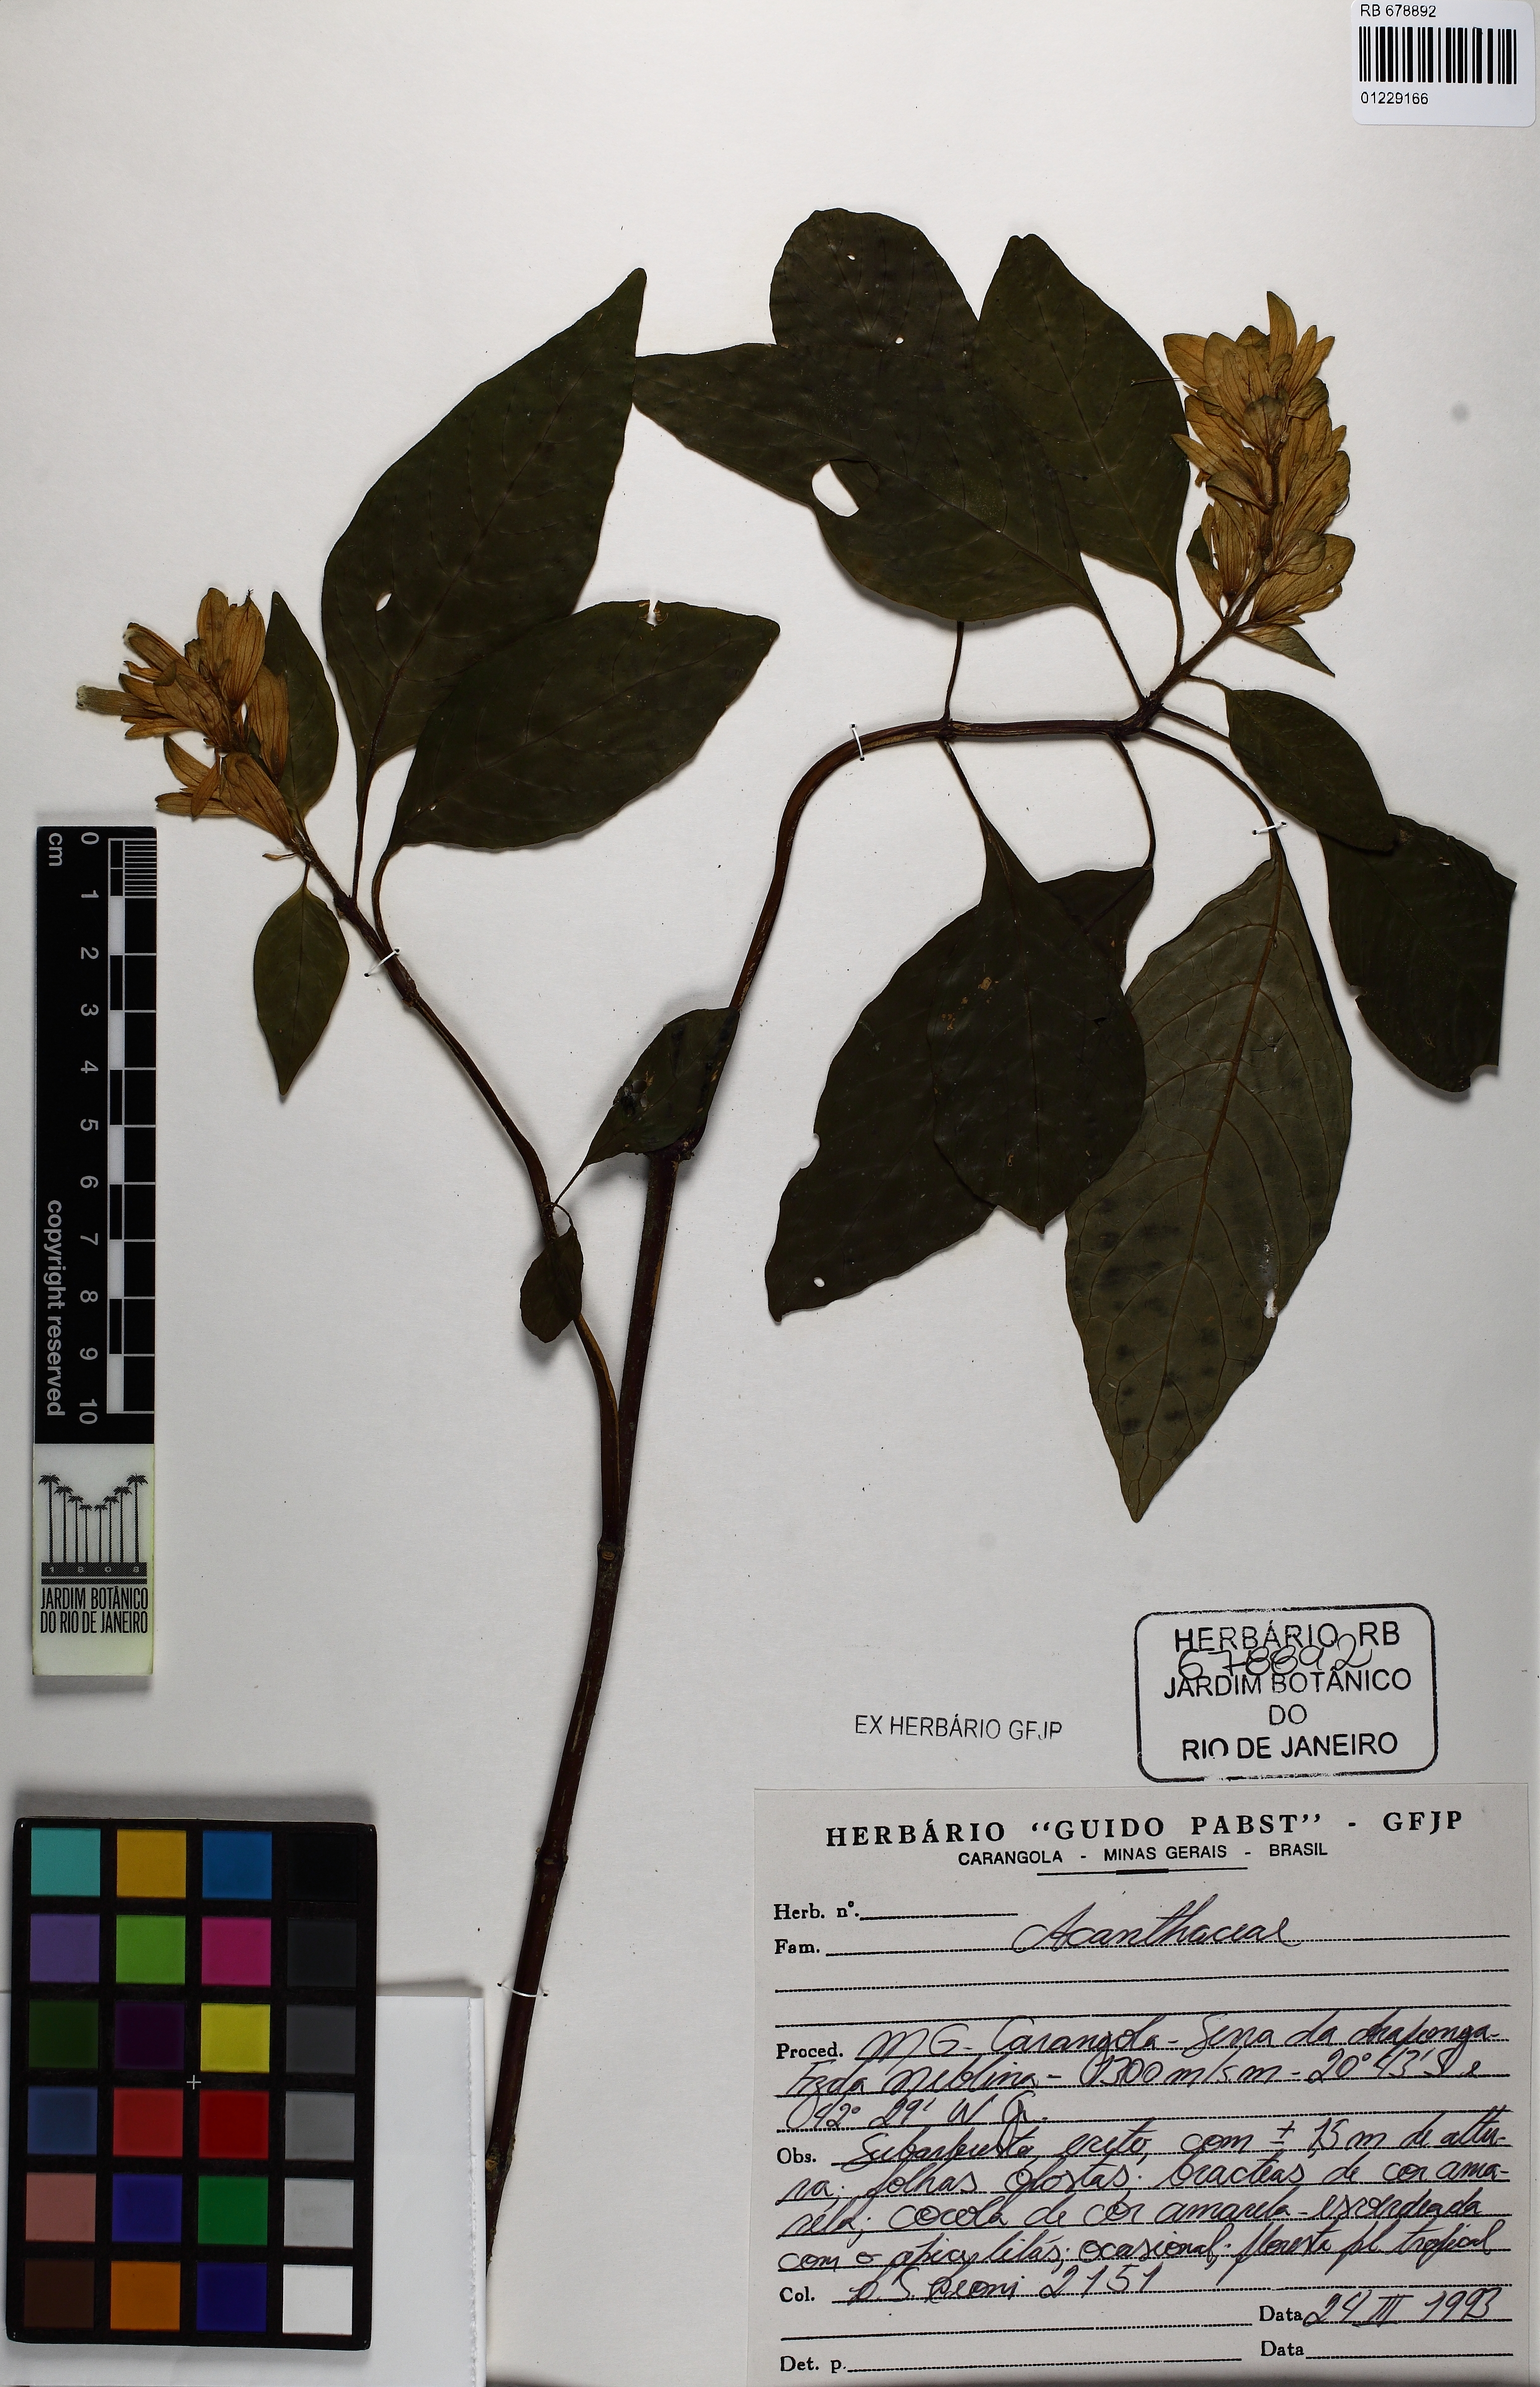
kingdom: Plantae
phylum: Tracheophyta
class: Magnoliopsida
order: Lamiales
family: Acanthaceae
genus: Staurogyne
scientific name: Staurogyne anigozanthus
